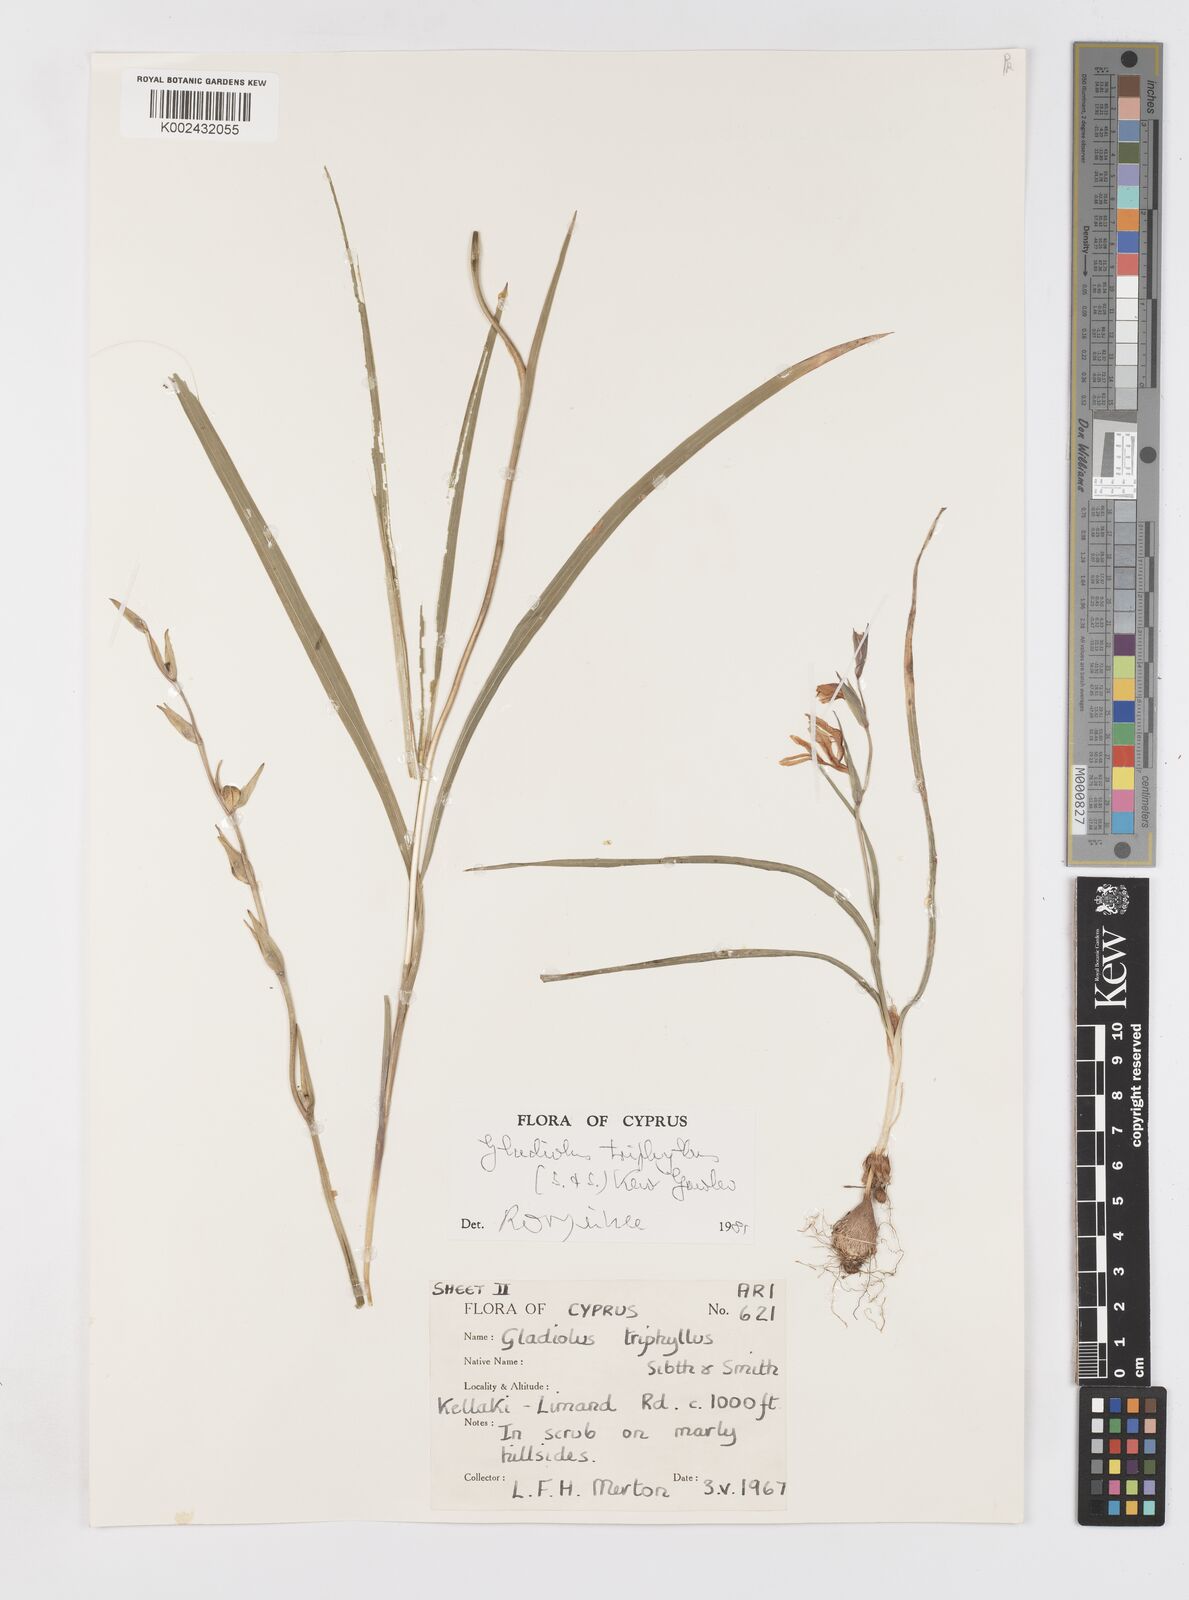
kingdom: Plantae
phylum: Tracheophyta
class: Liliopsida
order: Asparagales
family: Iridaceae
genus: Gladiolus
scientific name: Gladiolus triphyllus
